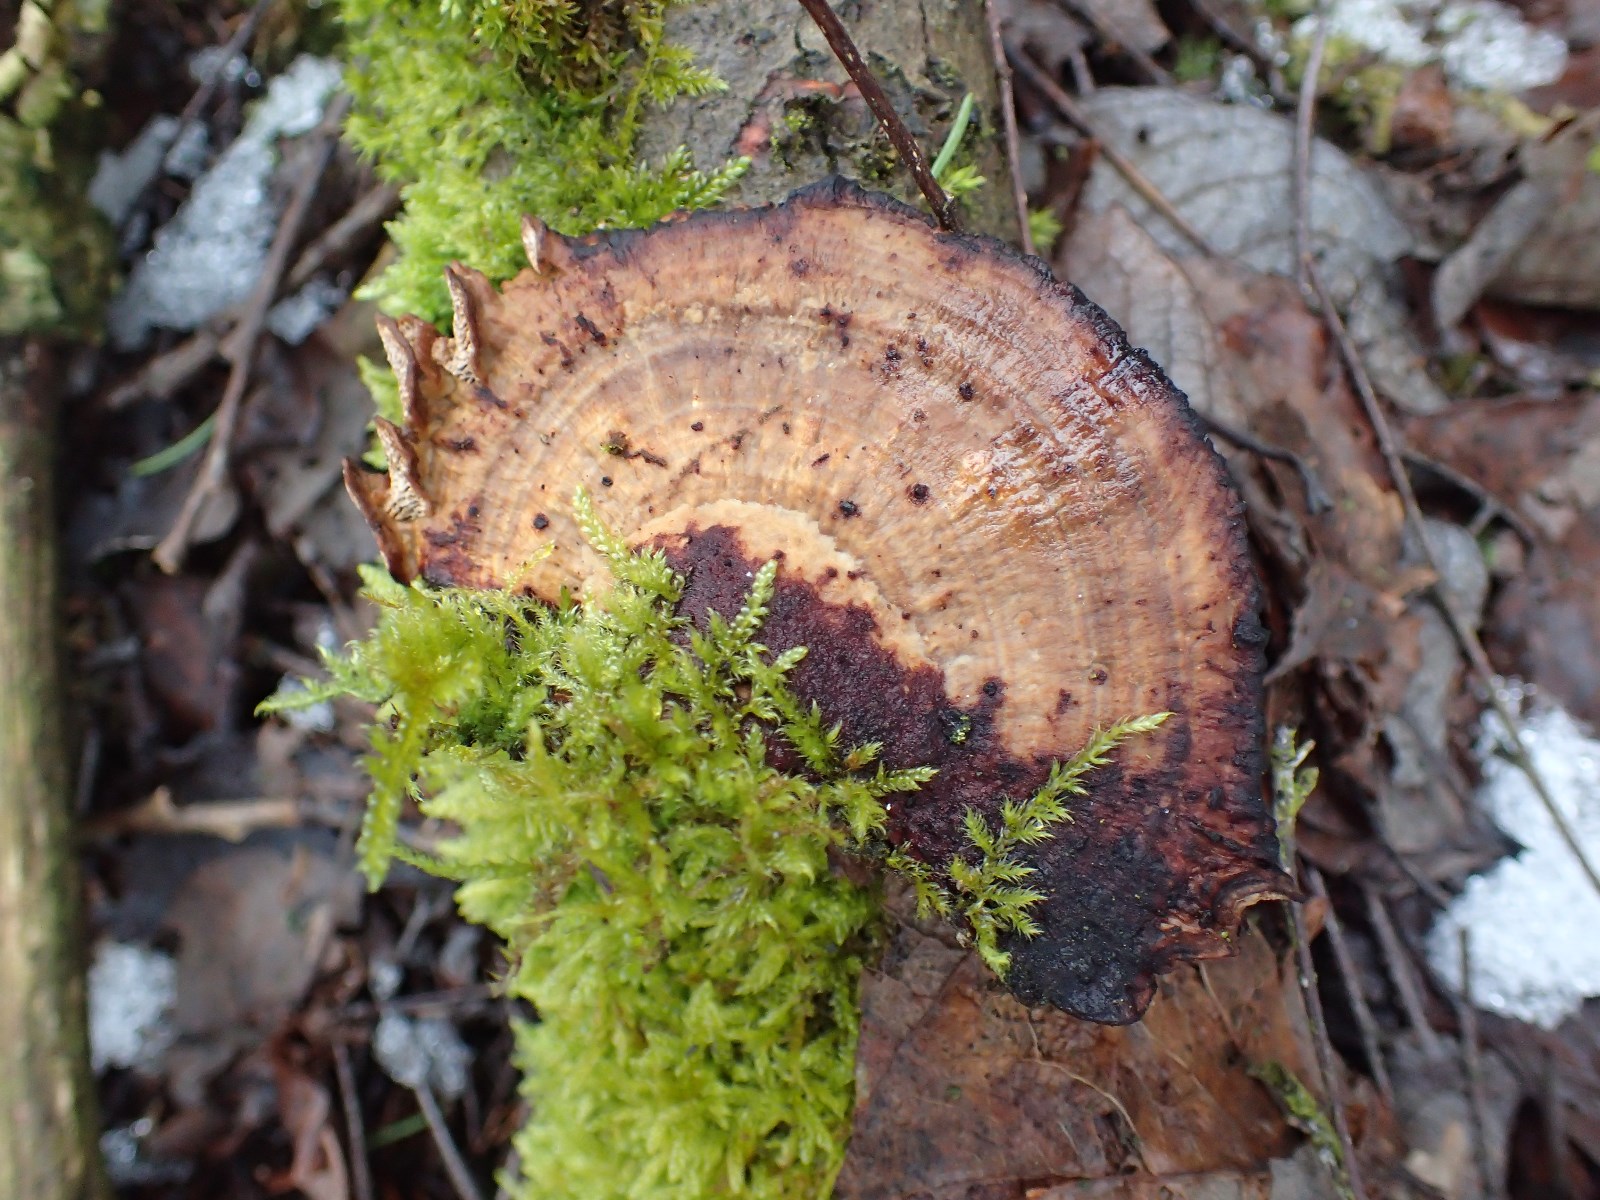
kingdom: Fungi
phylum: Basidiomycota
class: Agaricomycetes
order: Polyporales
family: Polyporaceae
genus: Daedaleopsis
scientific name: Daedaleopsis confragosa
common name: rødmende læderporesvamp
